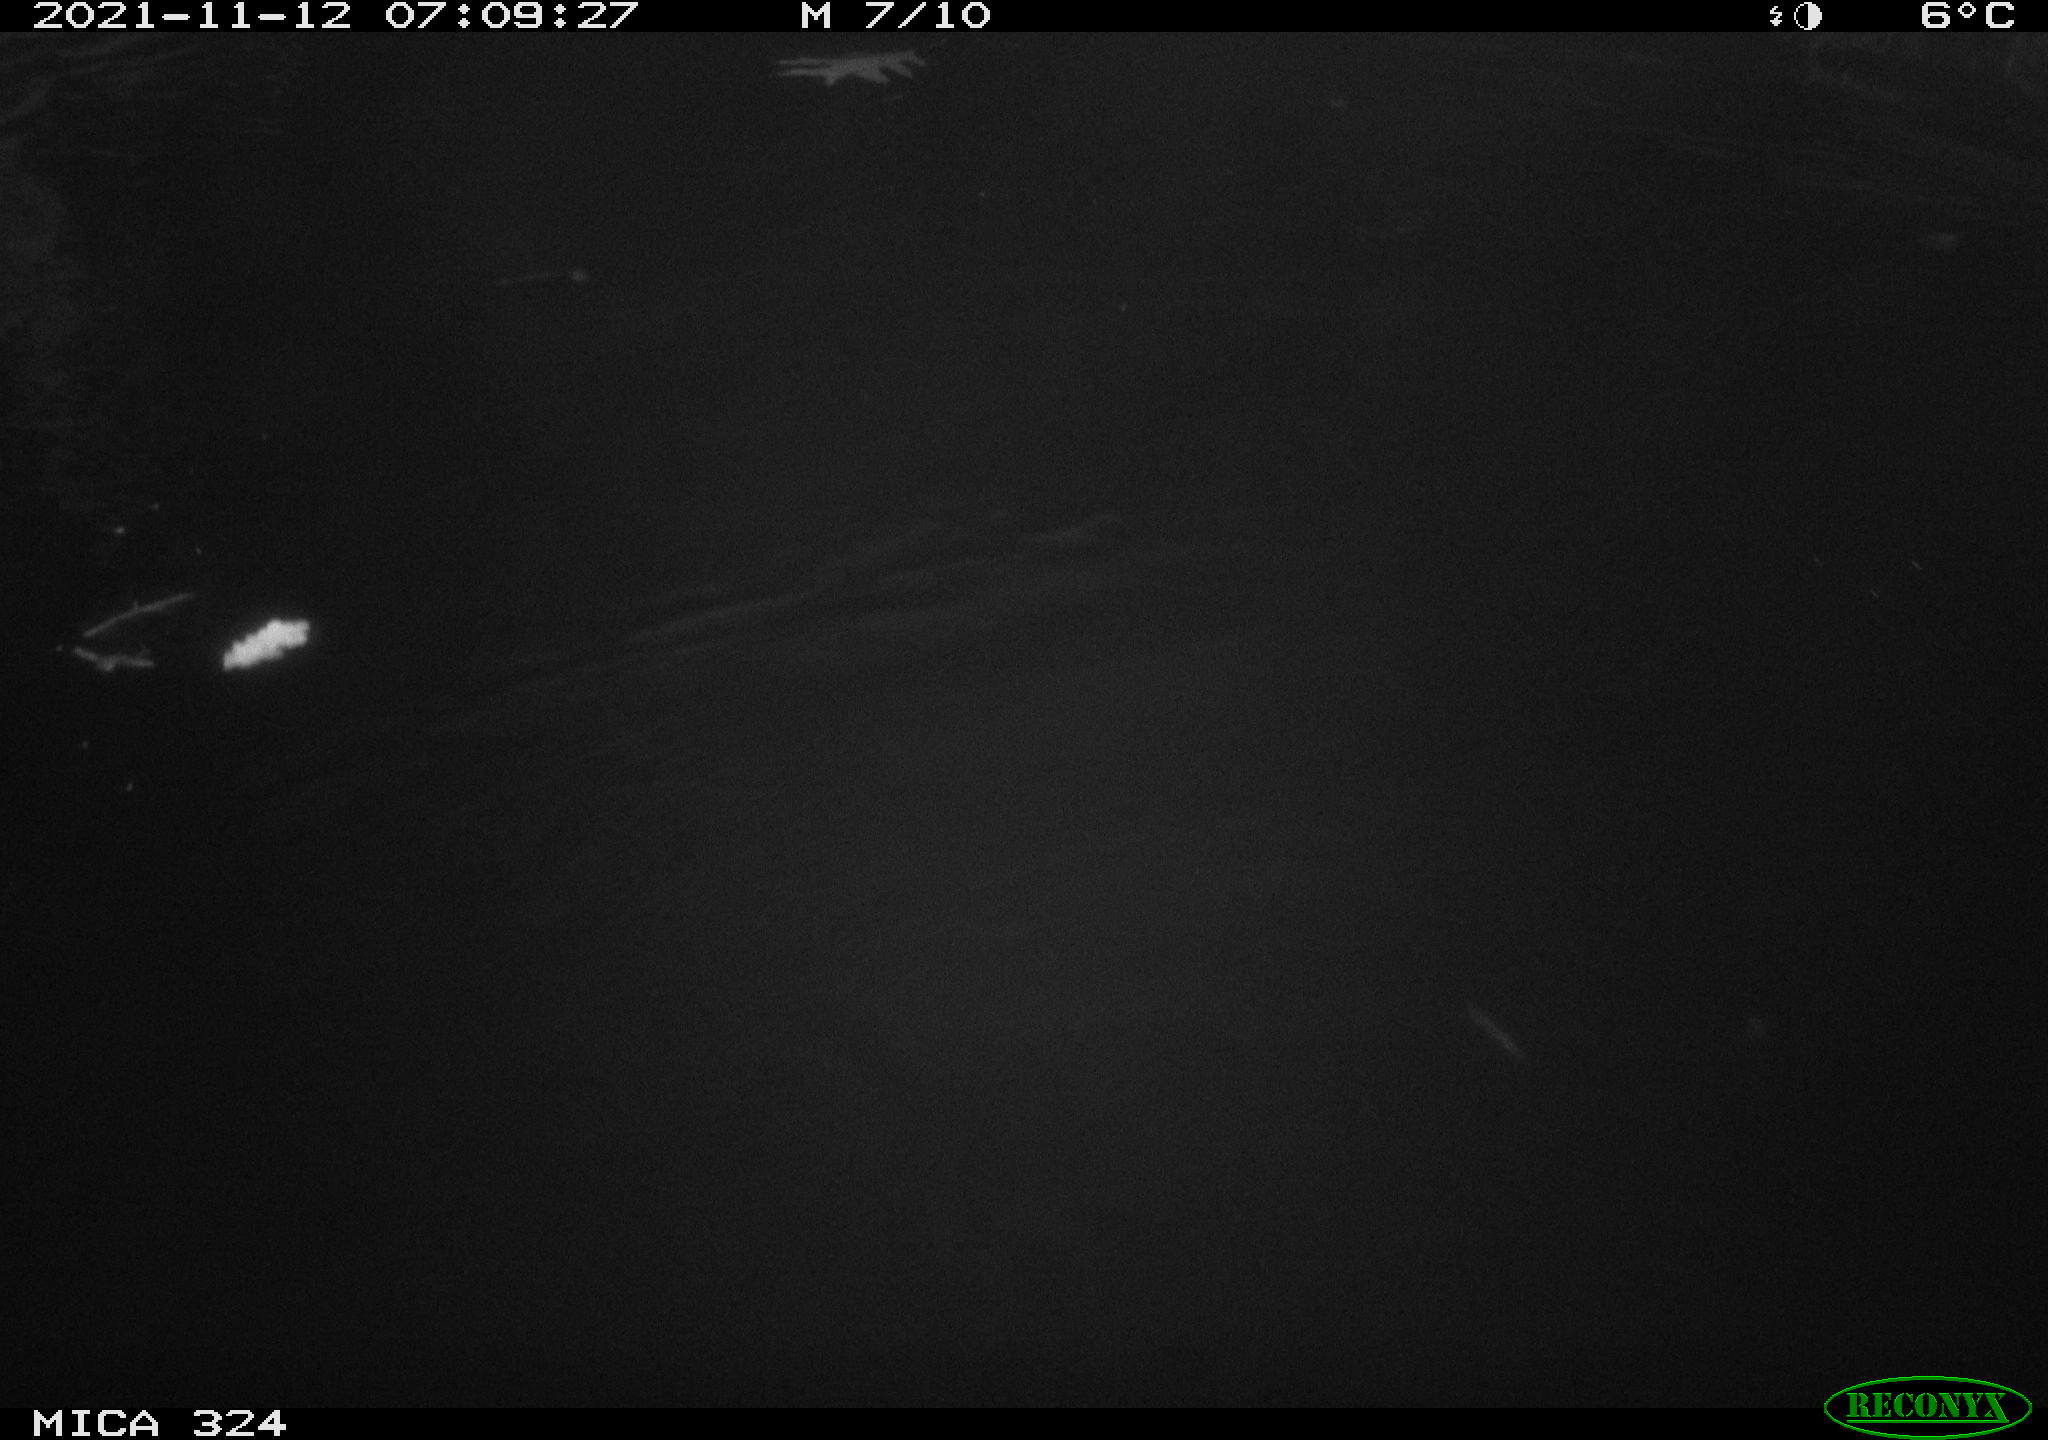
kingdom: Animalia
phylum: Chordata
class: Mammalia
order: Rodentia
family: Cricetidae
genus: Ondatra
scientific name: Ondatra zibethicus
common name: Muskrat
